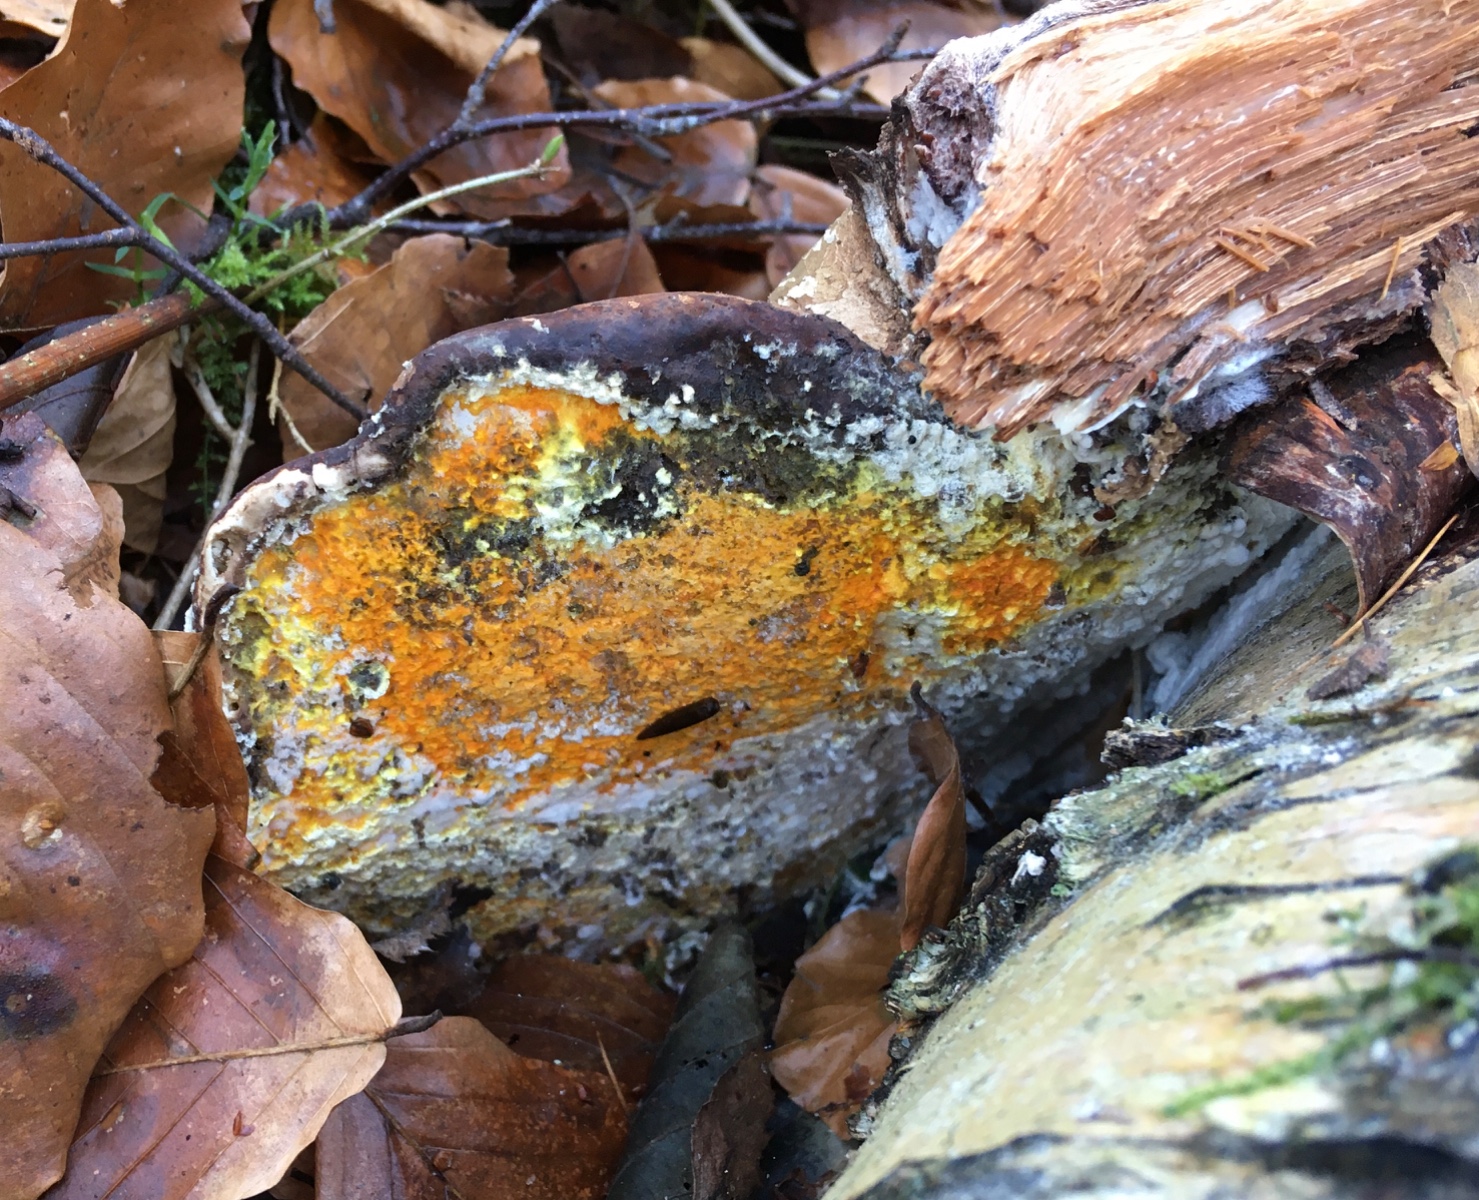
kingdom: Fungi
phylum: Ascomycota
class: Sordariomycetes
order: Hypocreales
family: Hypocreaceae
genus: Hypomyces
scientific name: Hypomyces aurantius
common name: almindelig snylteskorpe
